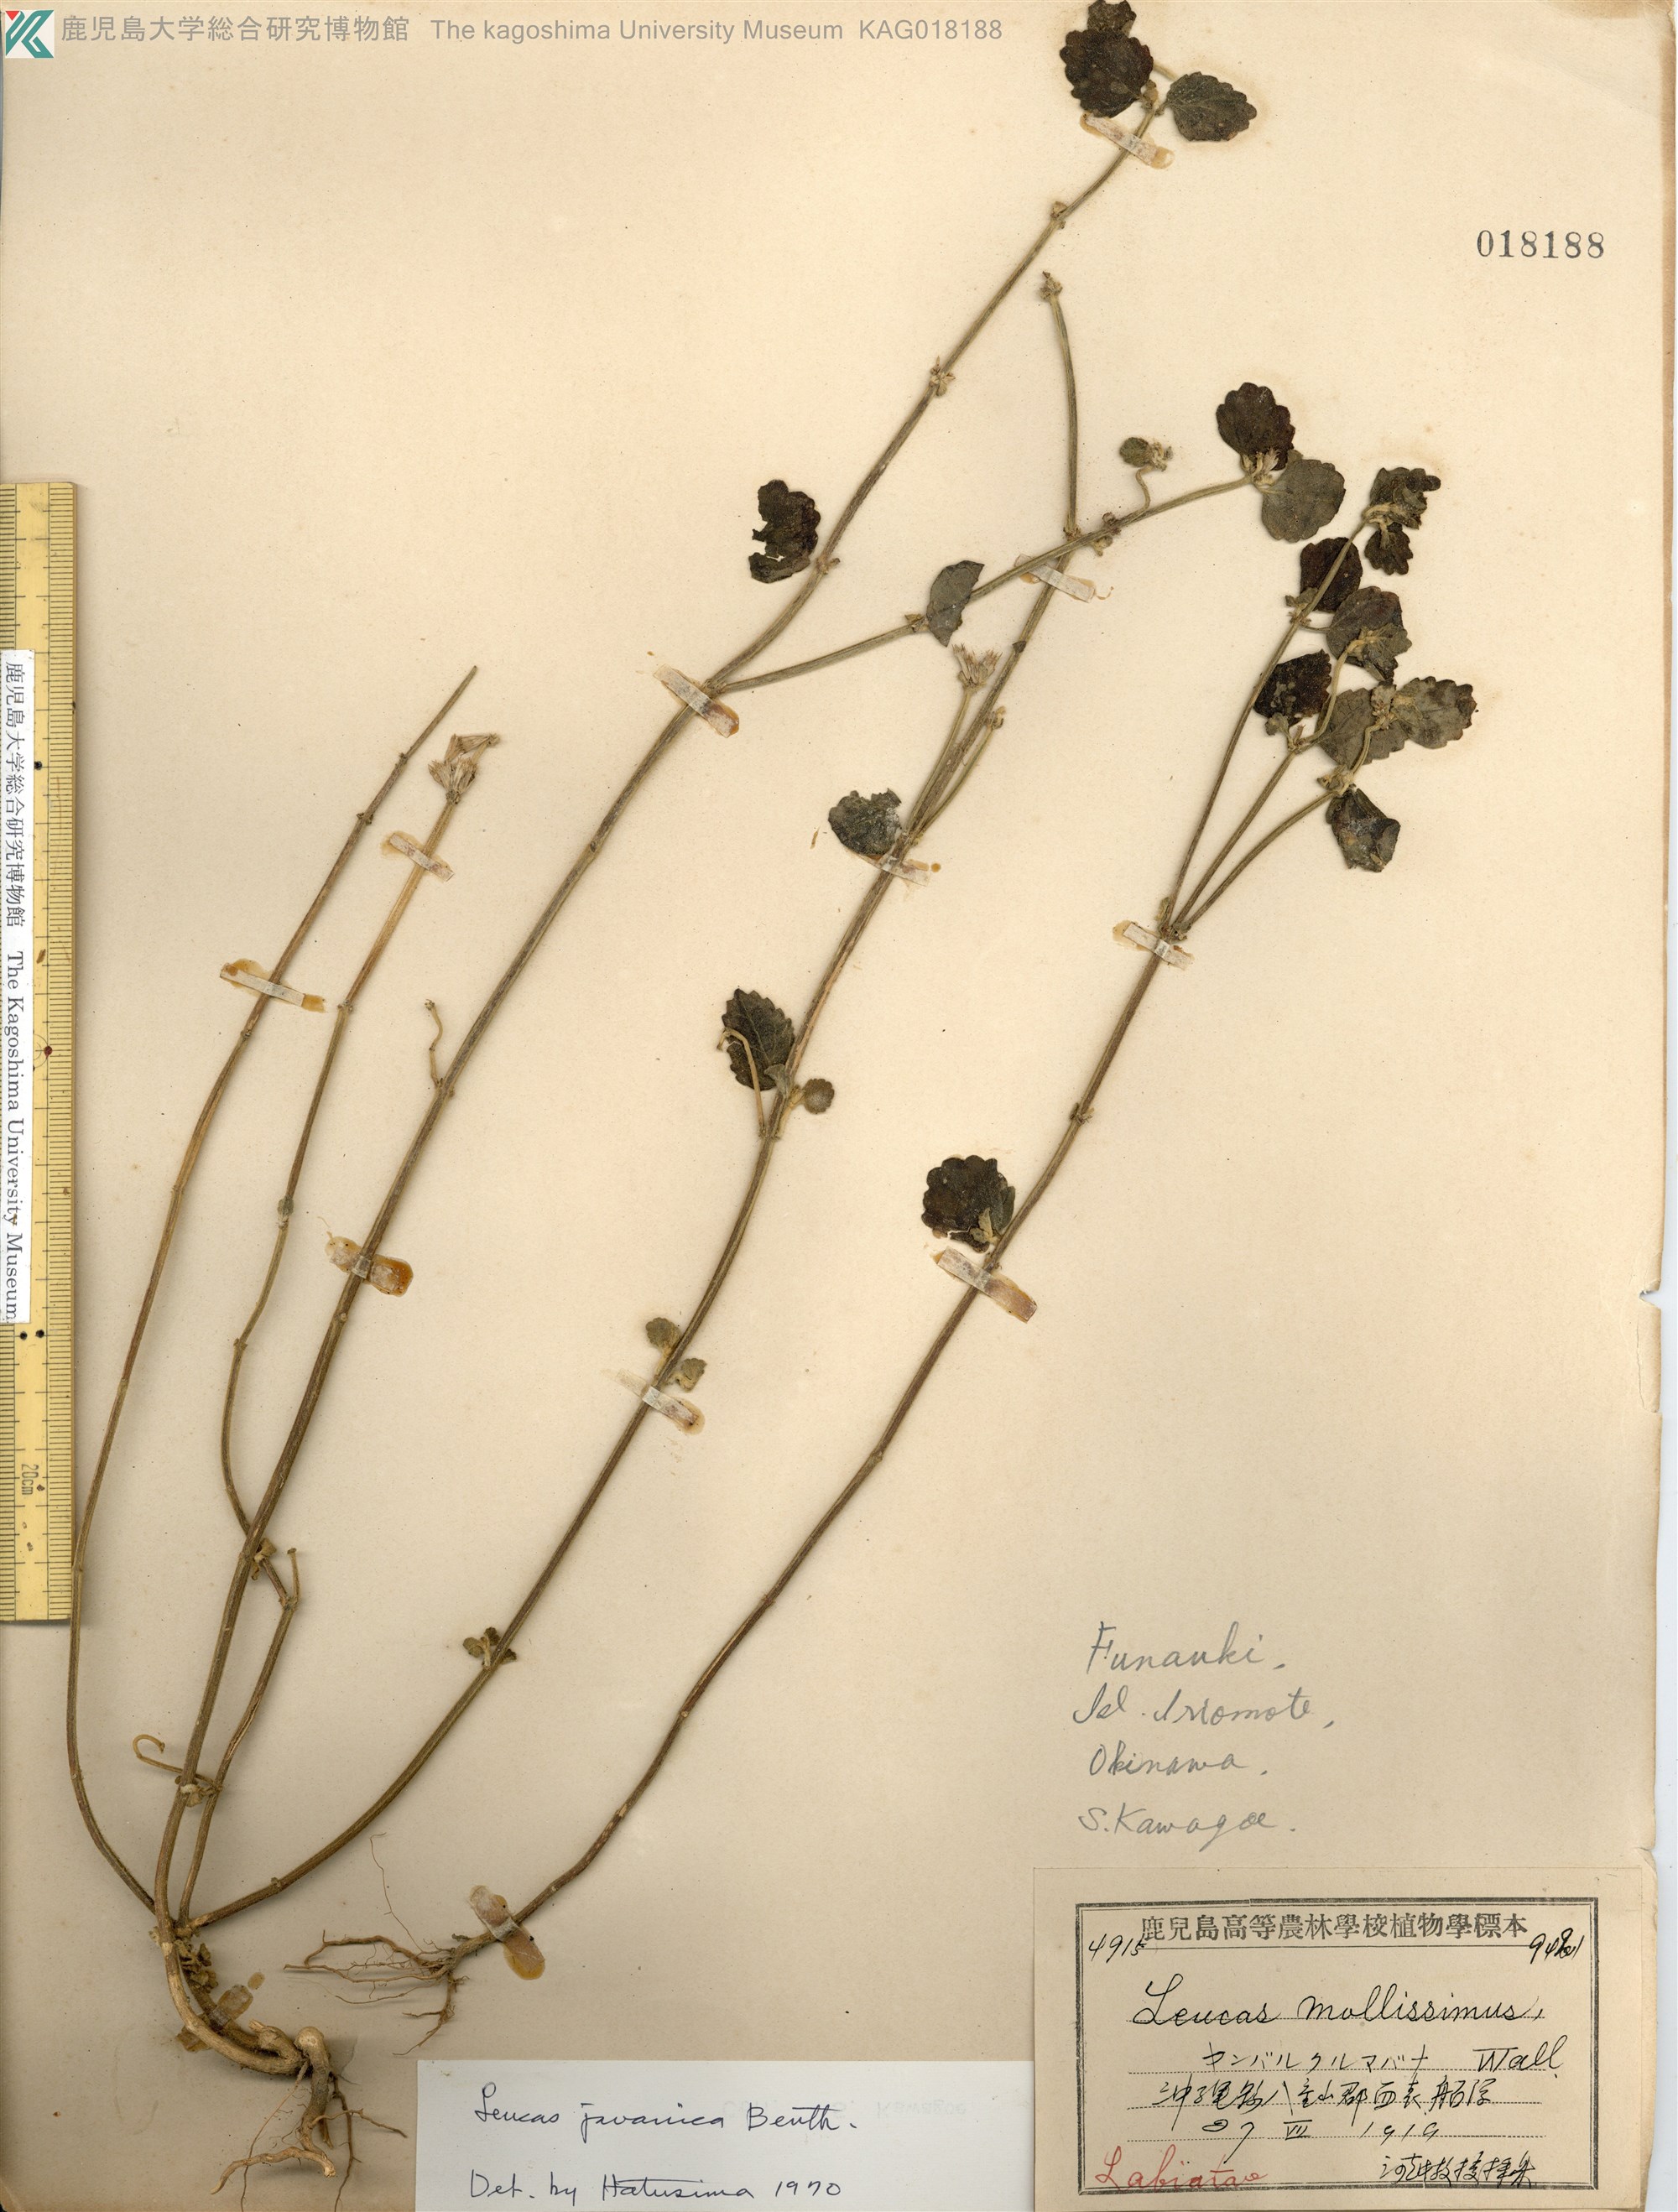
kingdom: Plantae
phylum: Tracheophyta
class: Magnoliopsida
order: Lamiales
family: Lamiaceae
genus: Leucas
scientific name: Leucas chinensis
